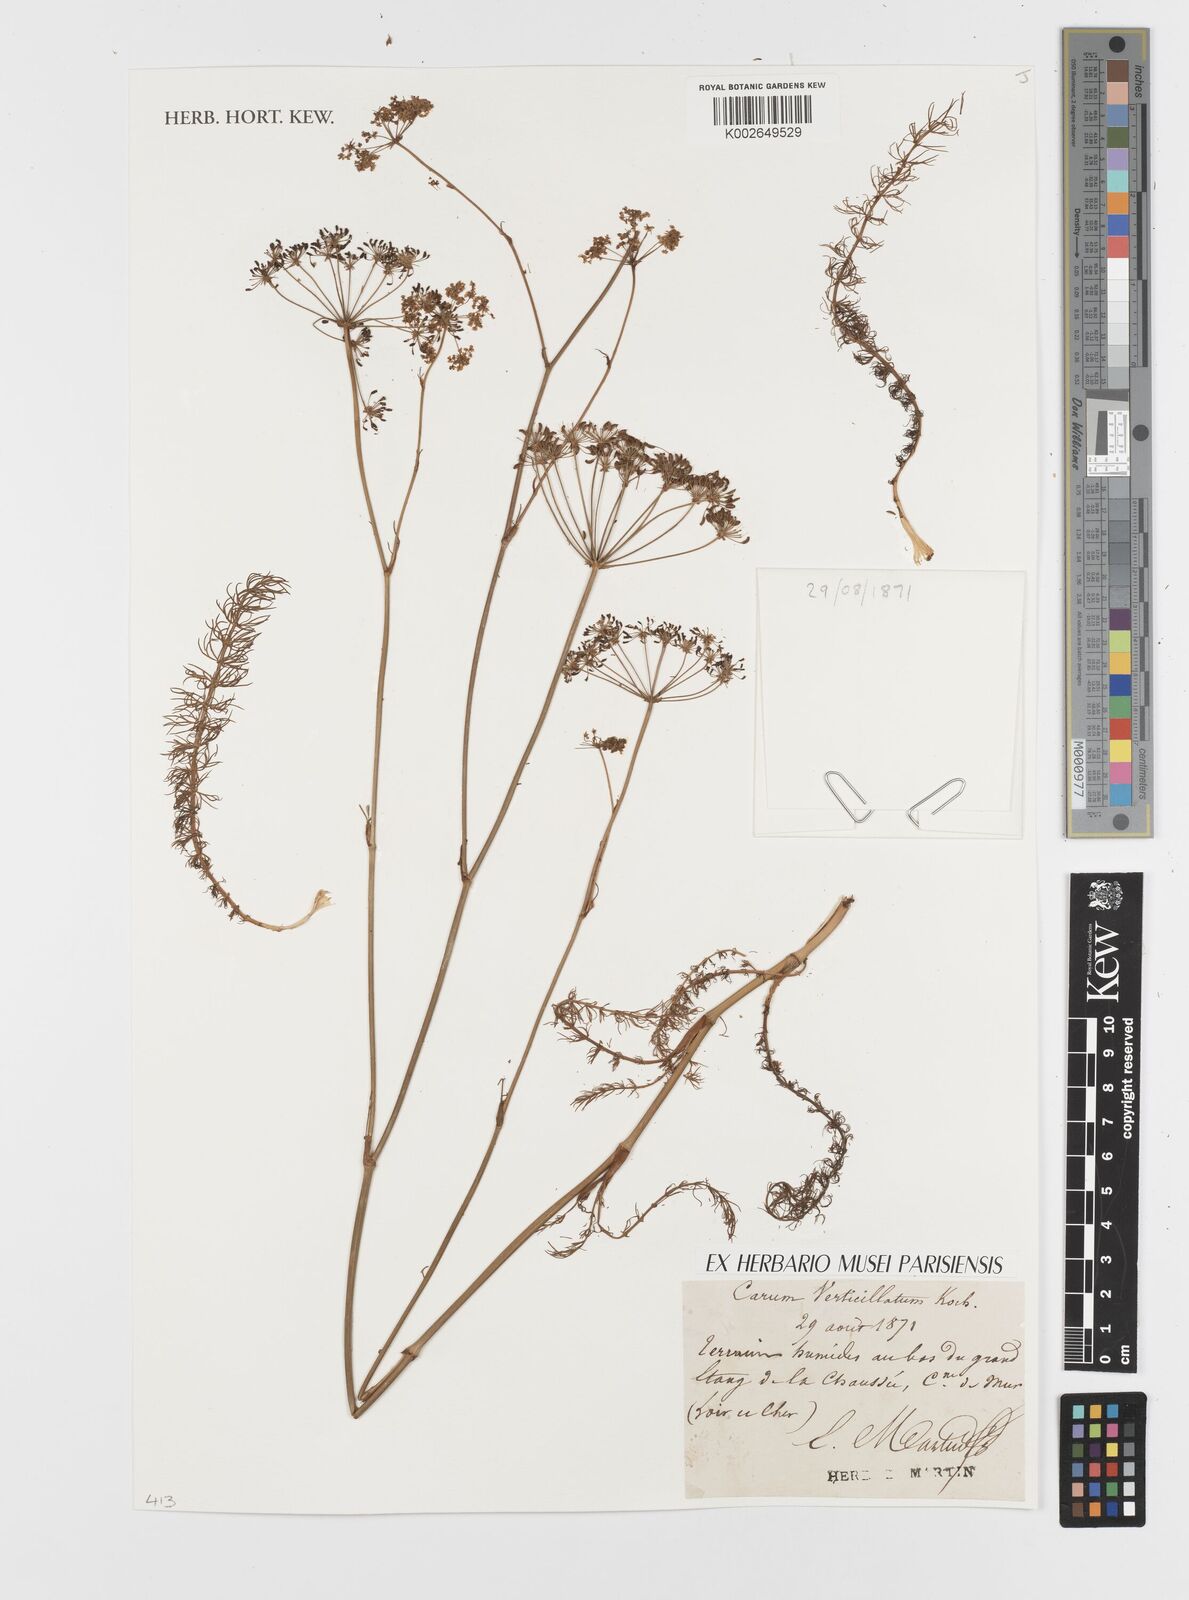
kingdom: Plantae
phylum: Tracheophyta
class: Magnoliopsida
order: Apiales
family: Apiaceae
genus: Trocdaris
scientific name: Trocdaris verticillatum
